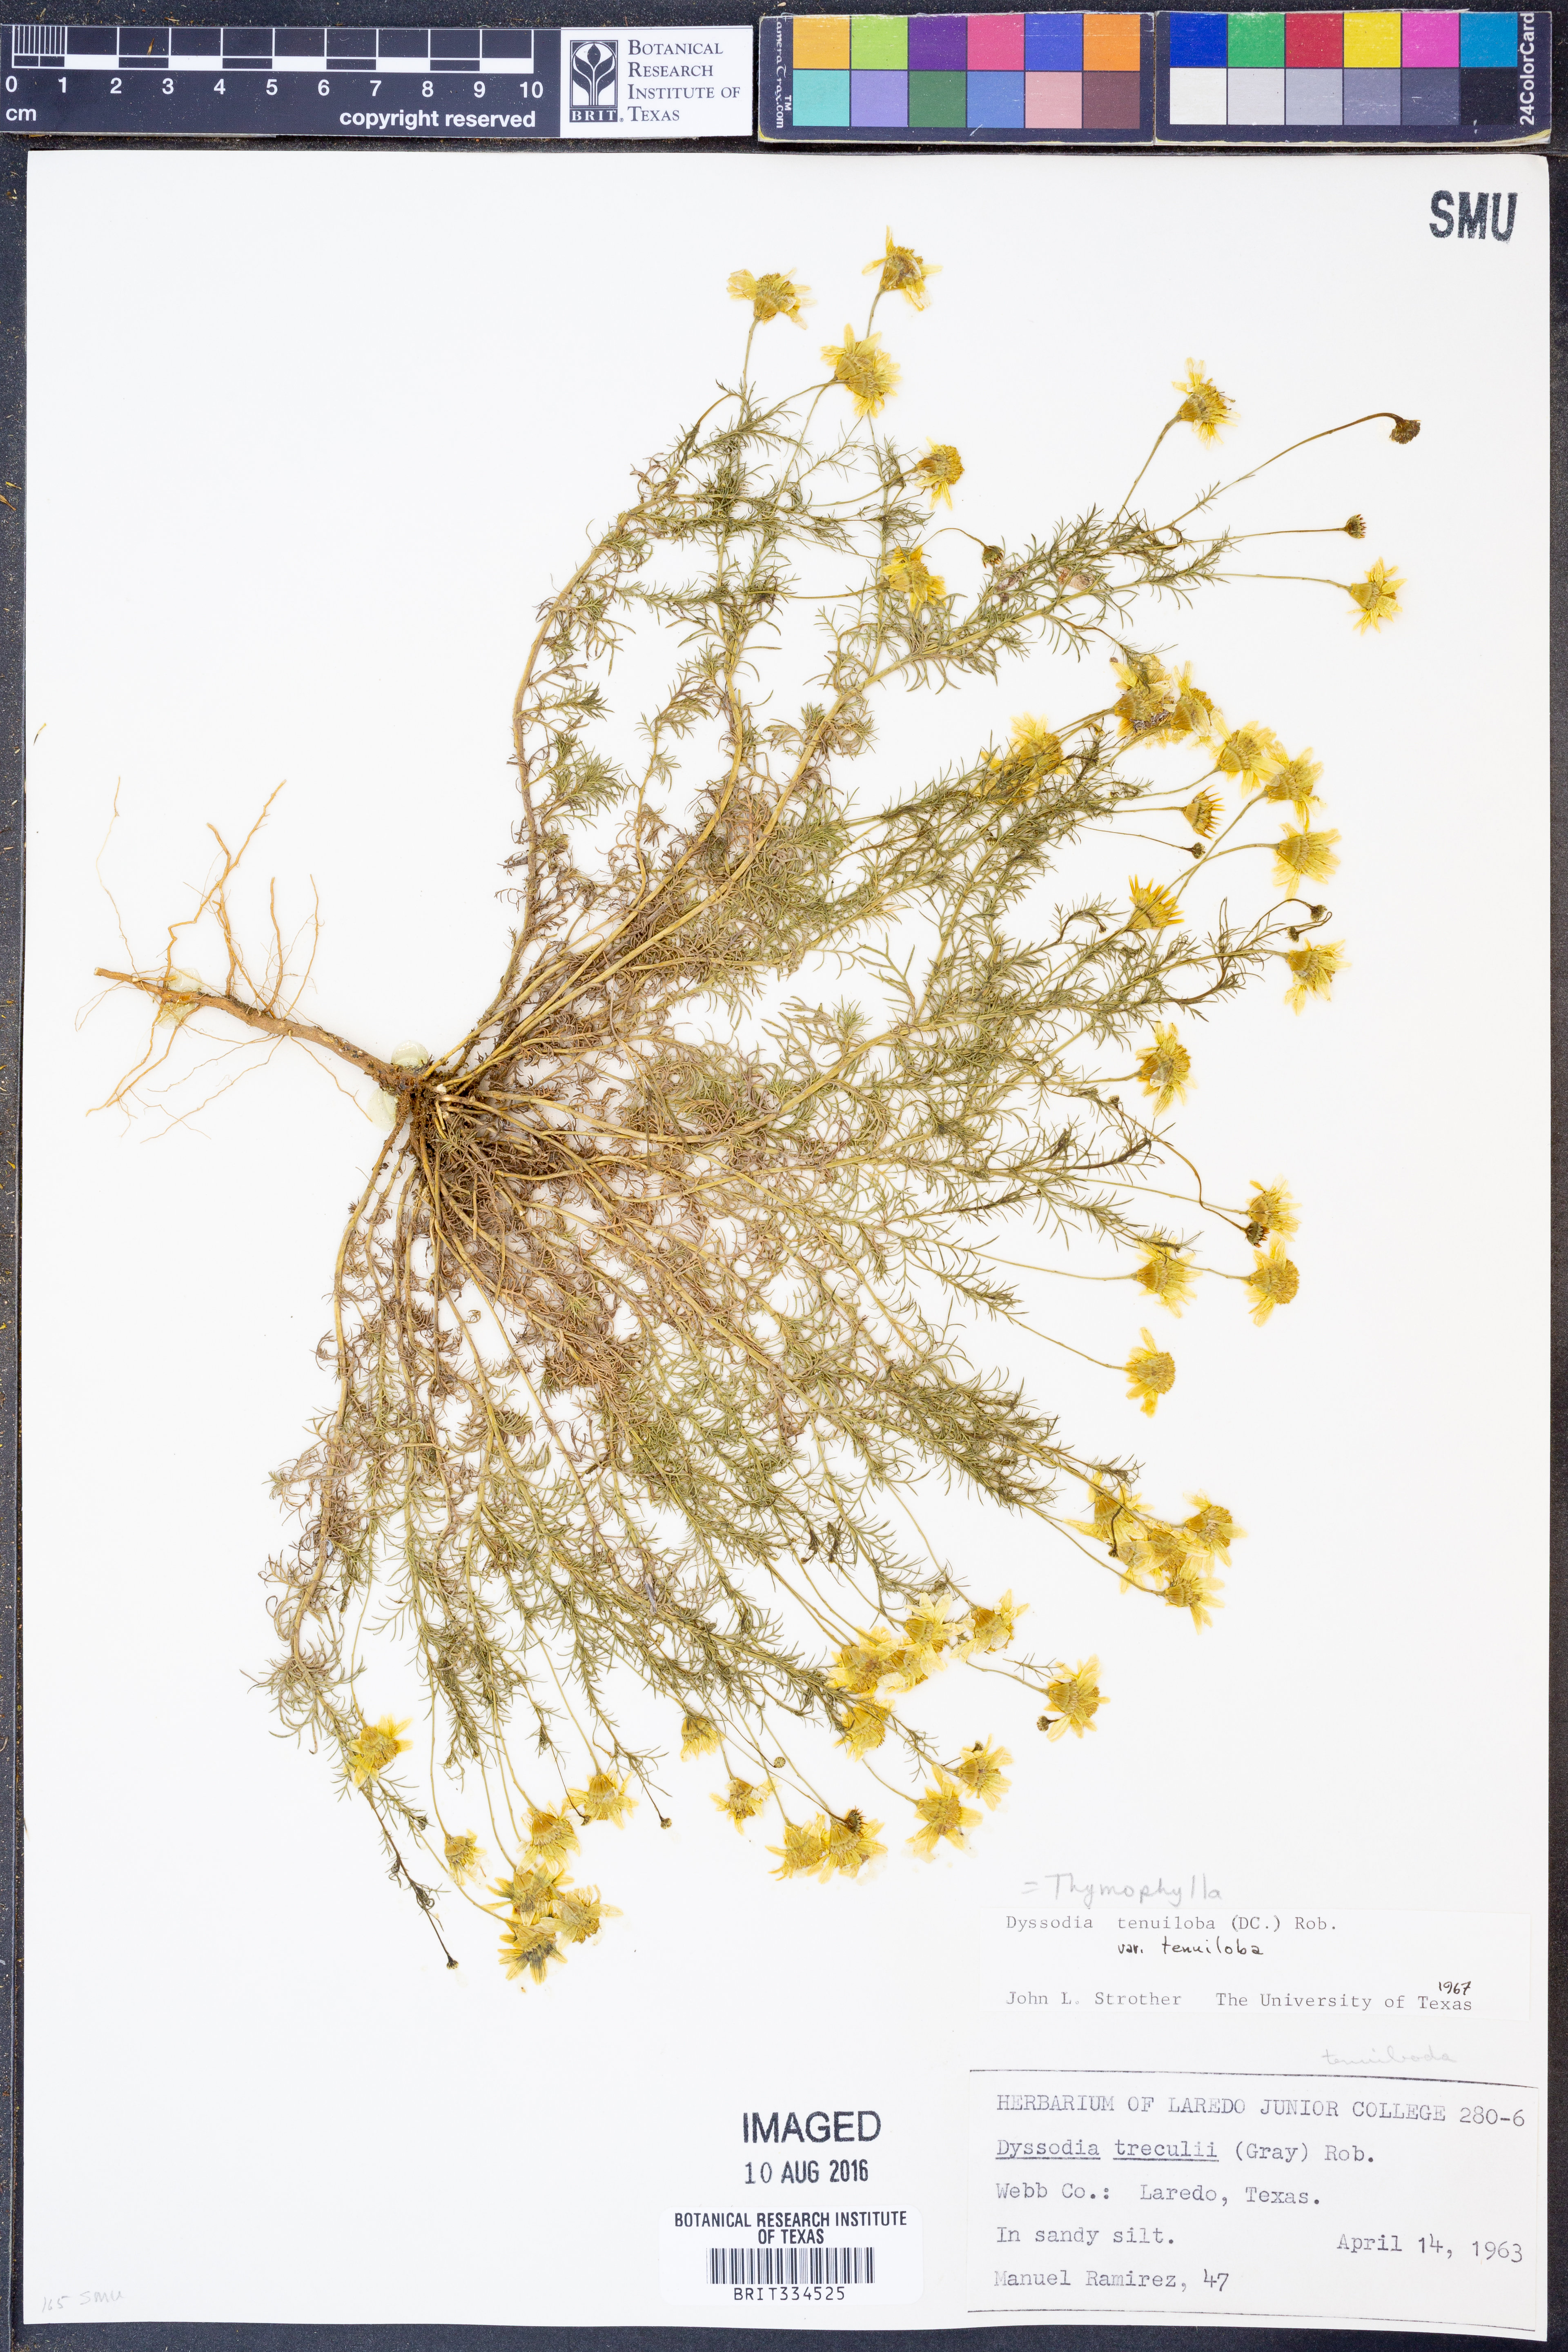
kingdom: Plantae
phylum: Tracheophyta
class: Magnoliopsida
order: Asterales
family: Asteraceae
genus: Thymophylla
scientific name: Thymophylla tenuiloba
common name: Dahlberg's daisy
